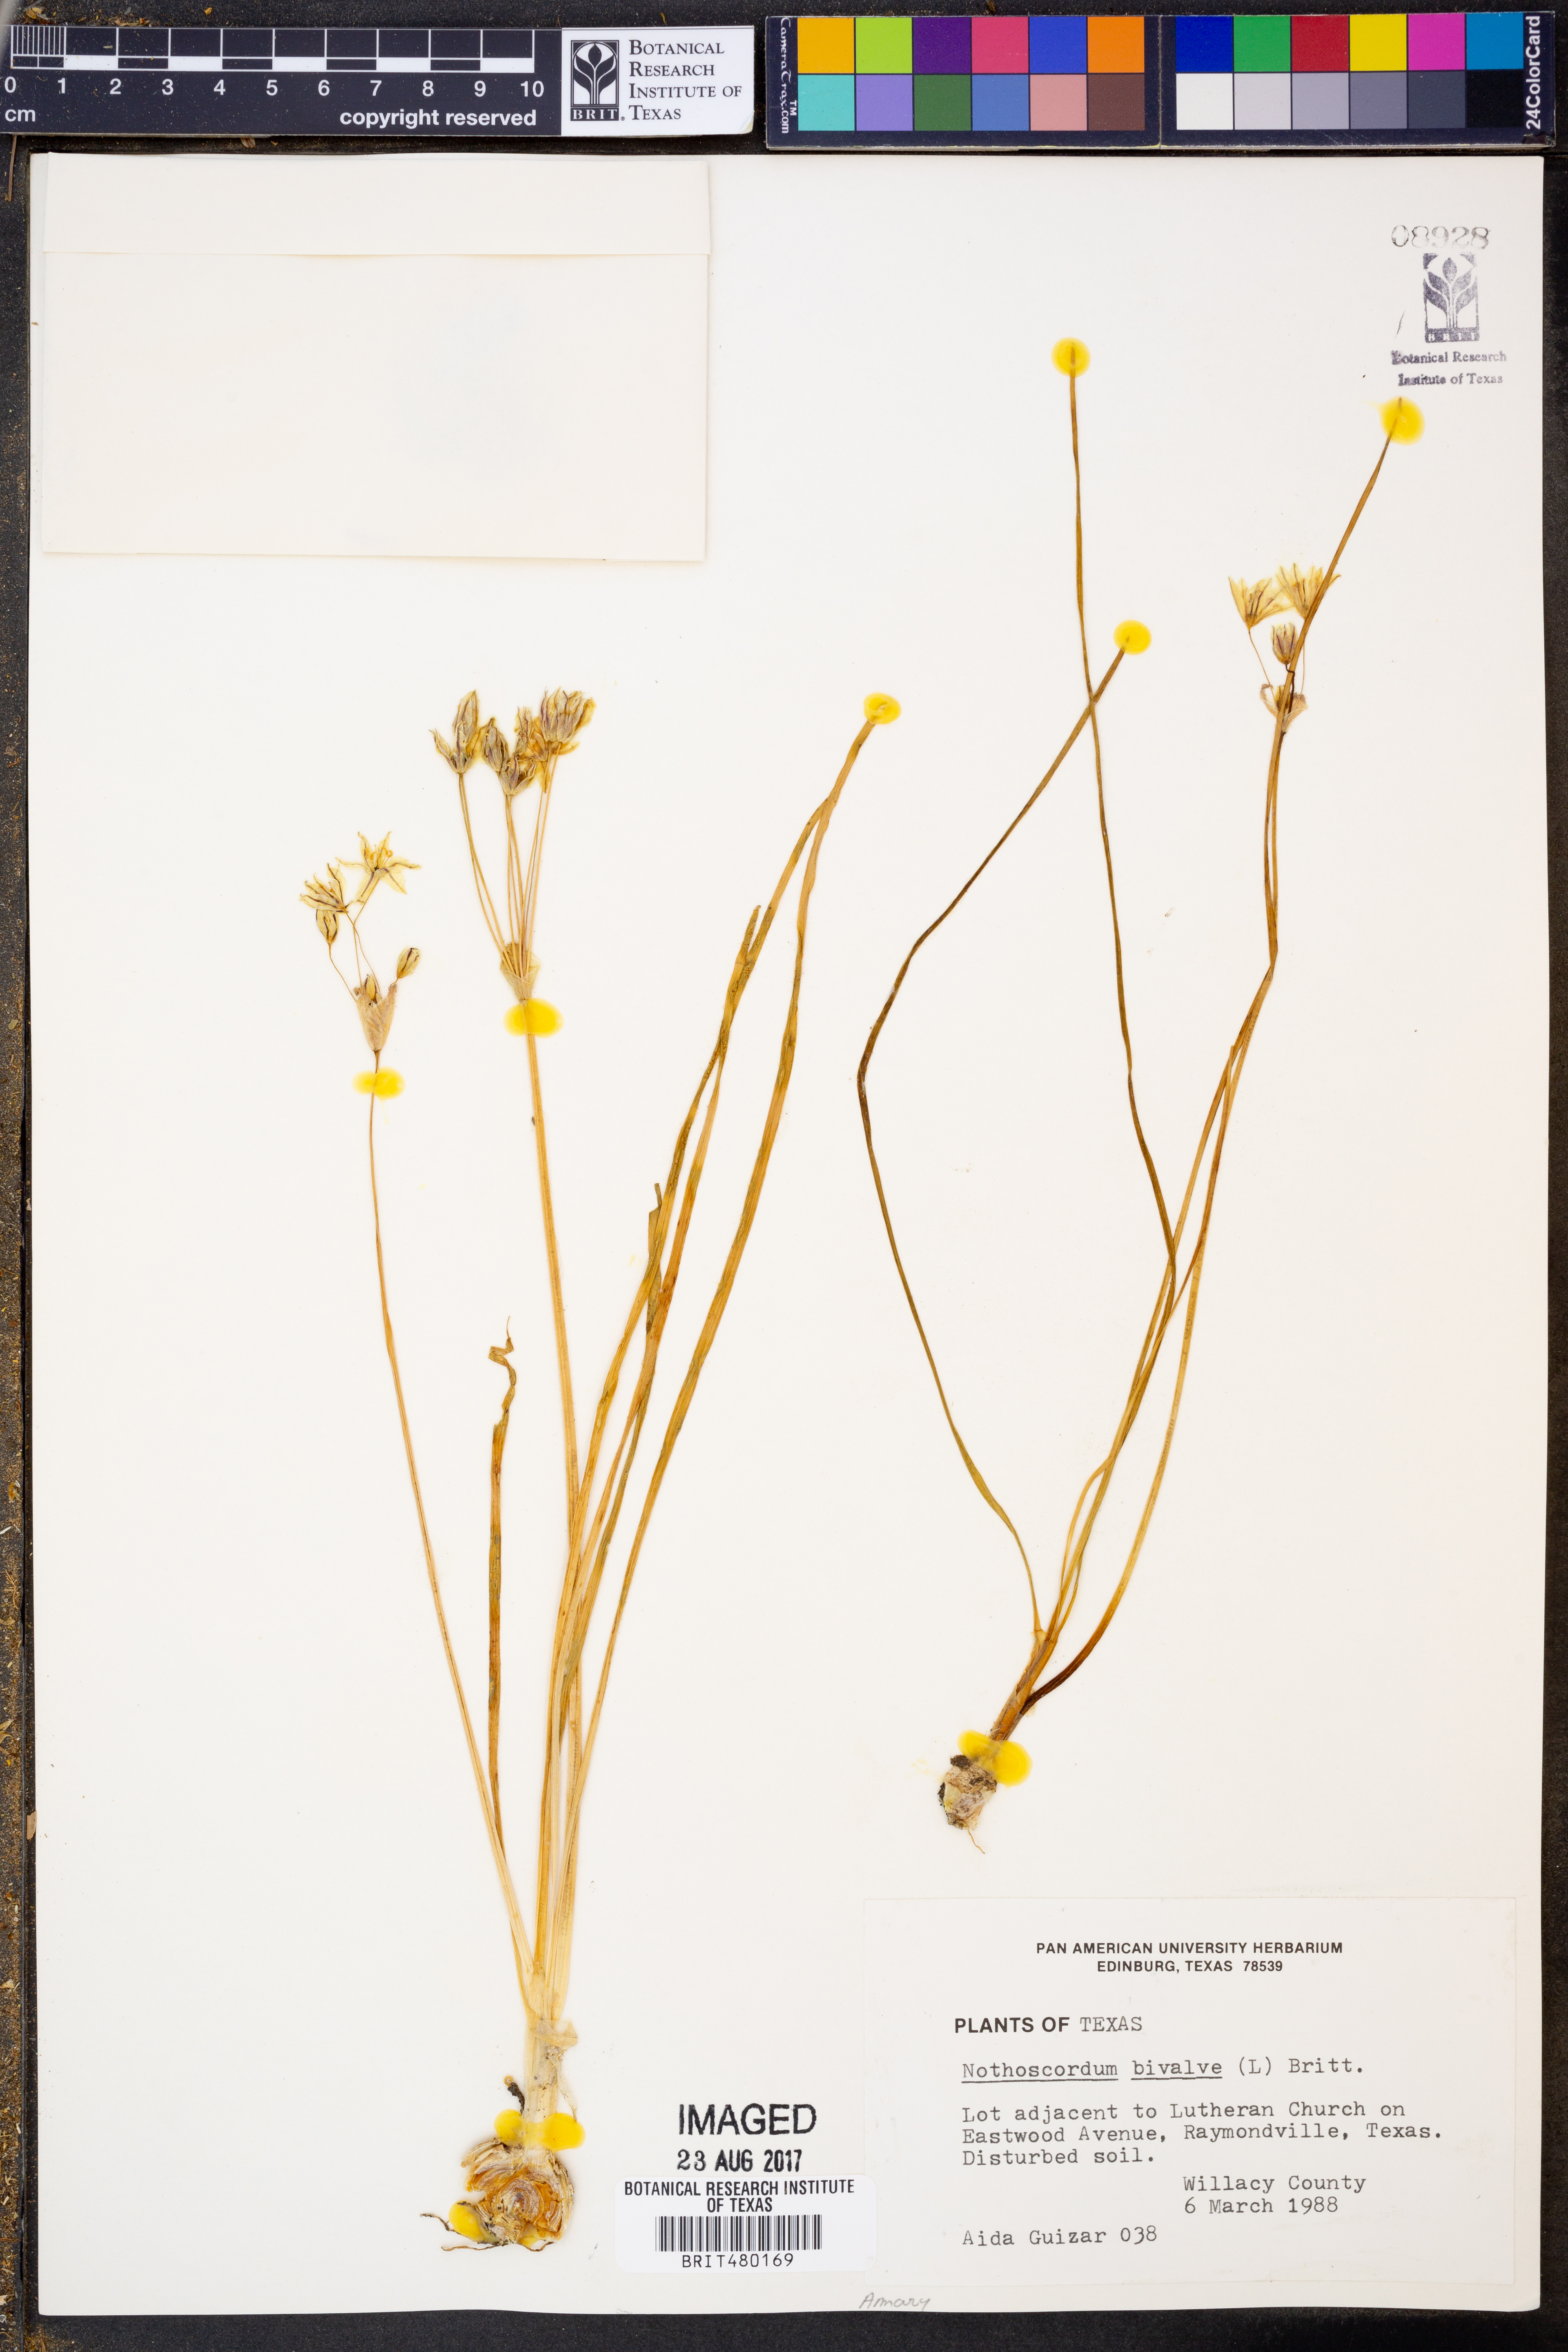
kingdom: Plantae
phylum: Tracheophyta
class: Liliopsida
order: Asparagales
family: Amaryllidaceae
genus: Nothoscordum
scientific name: Nothoscordum bivalve
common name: Crow-poison
